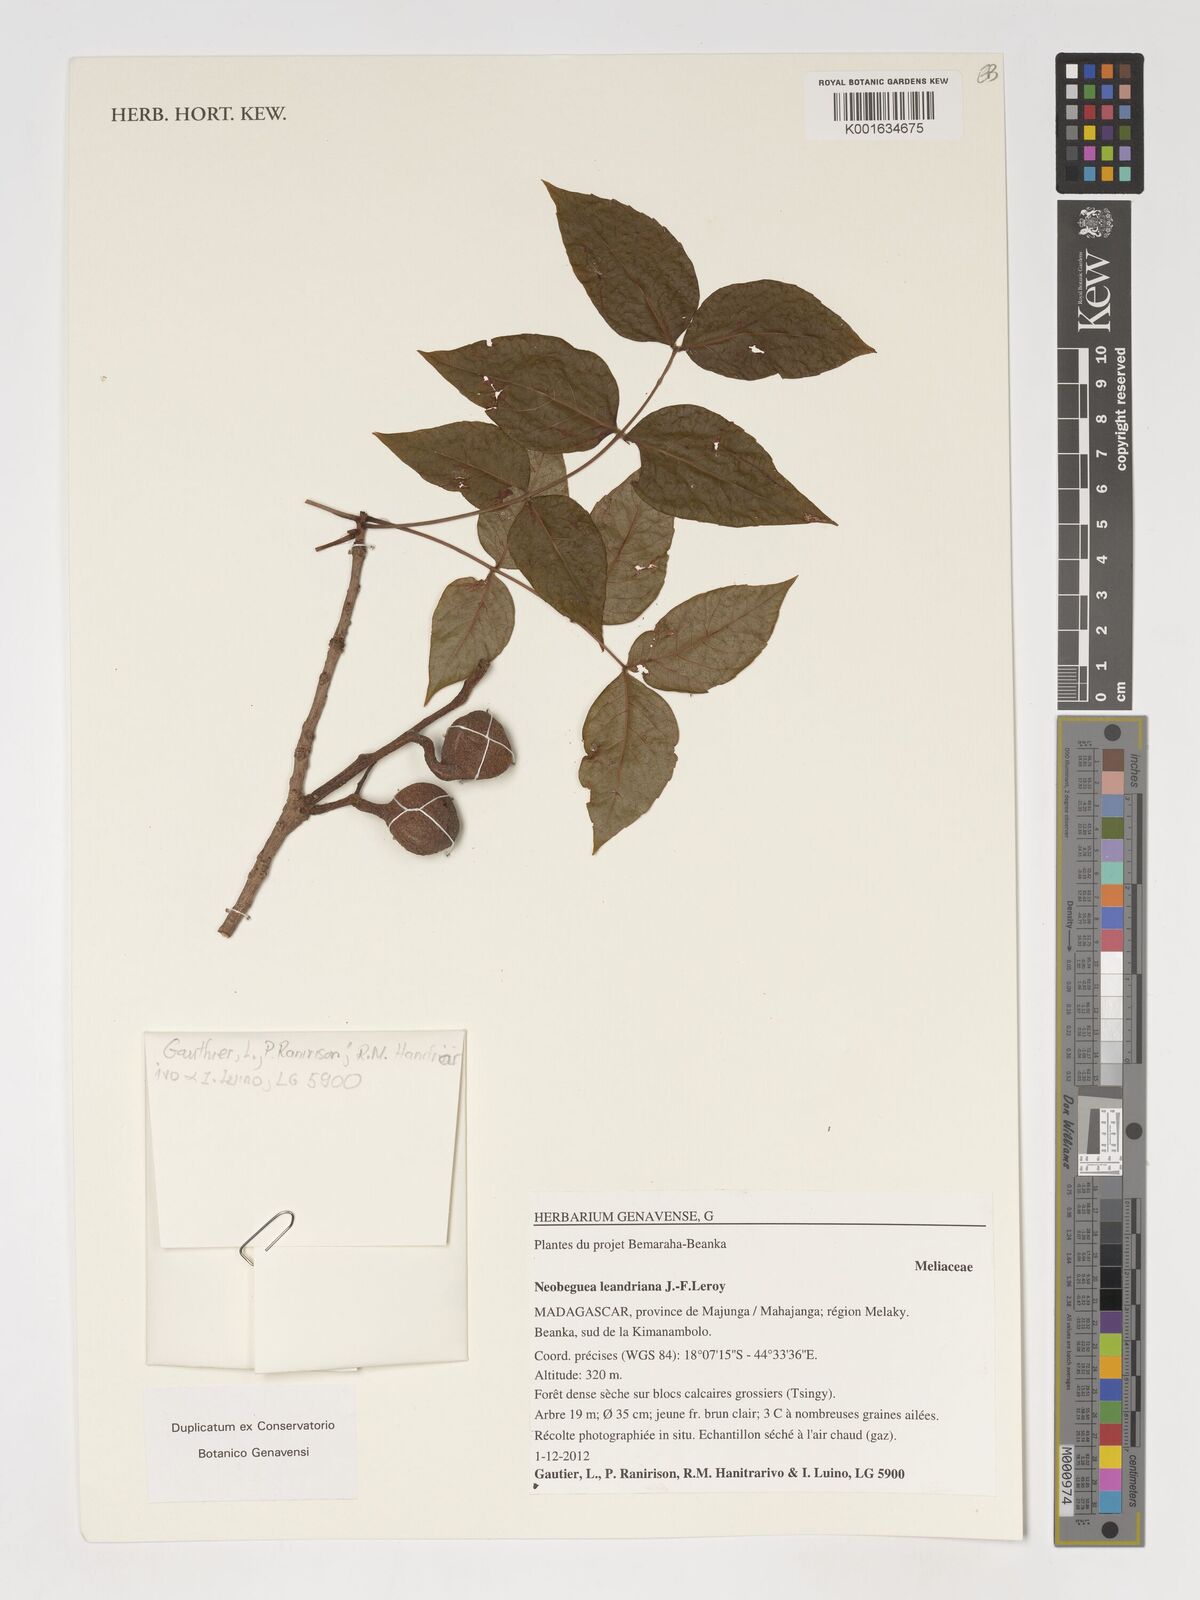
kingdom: Plantae
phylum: Tracheophyta
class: Magnoliopsida
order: Sapindales
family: Meliaceae
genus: Neobeguea
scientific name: Neobeguea leandriana
